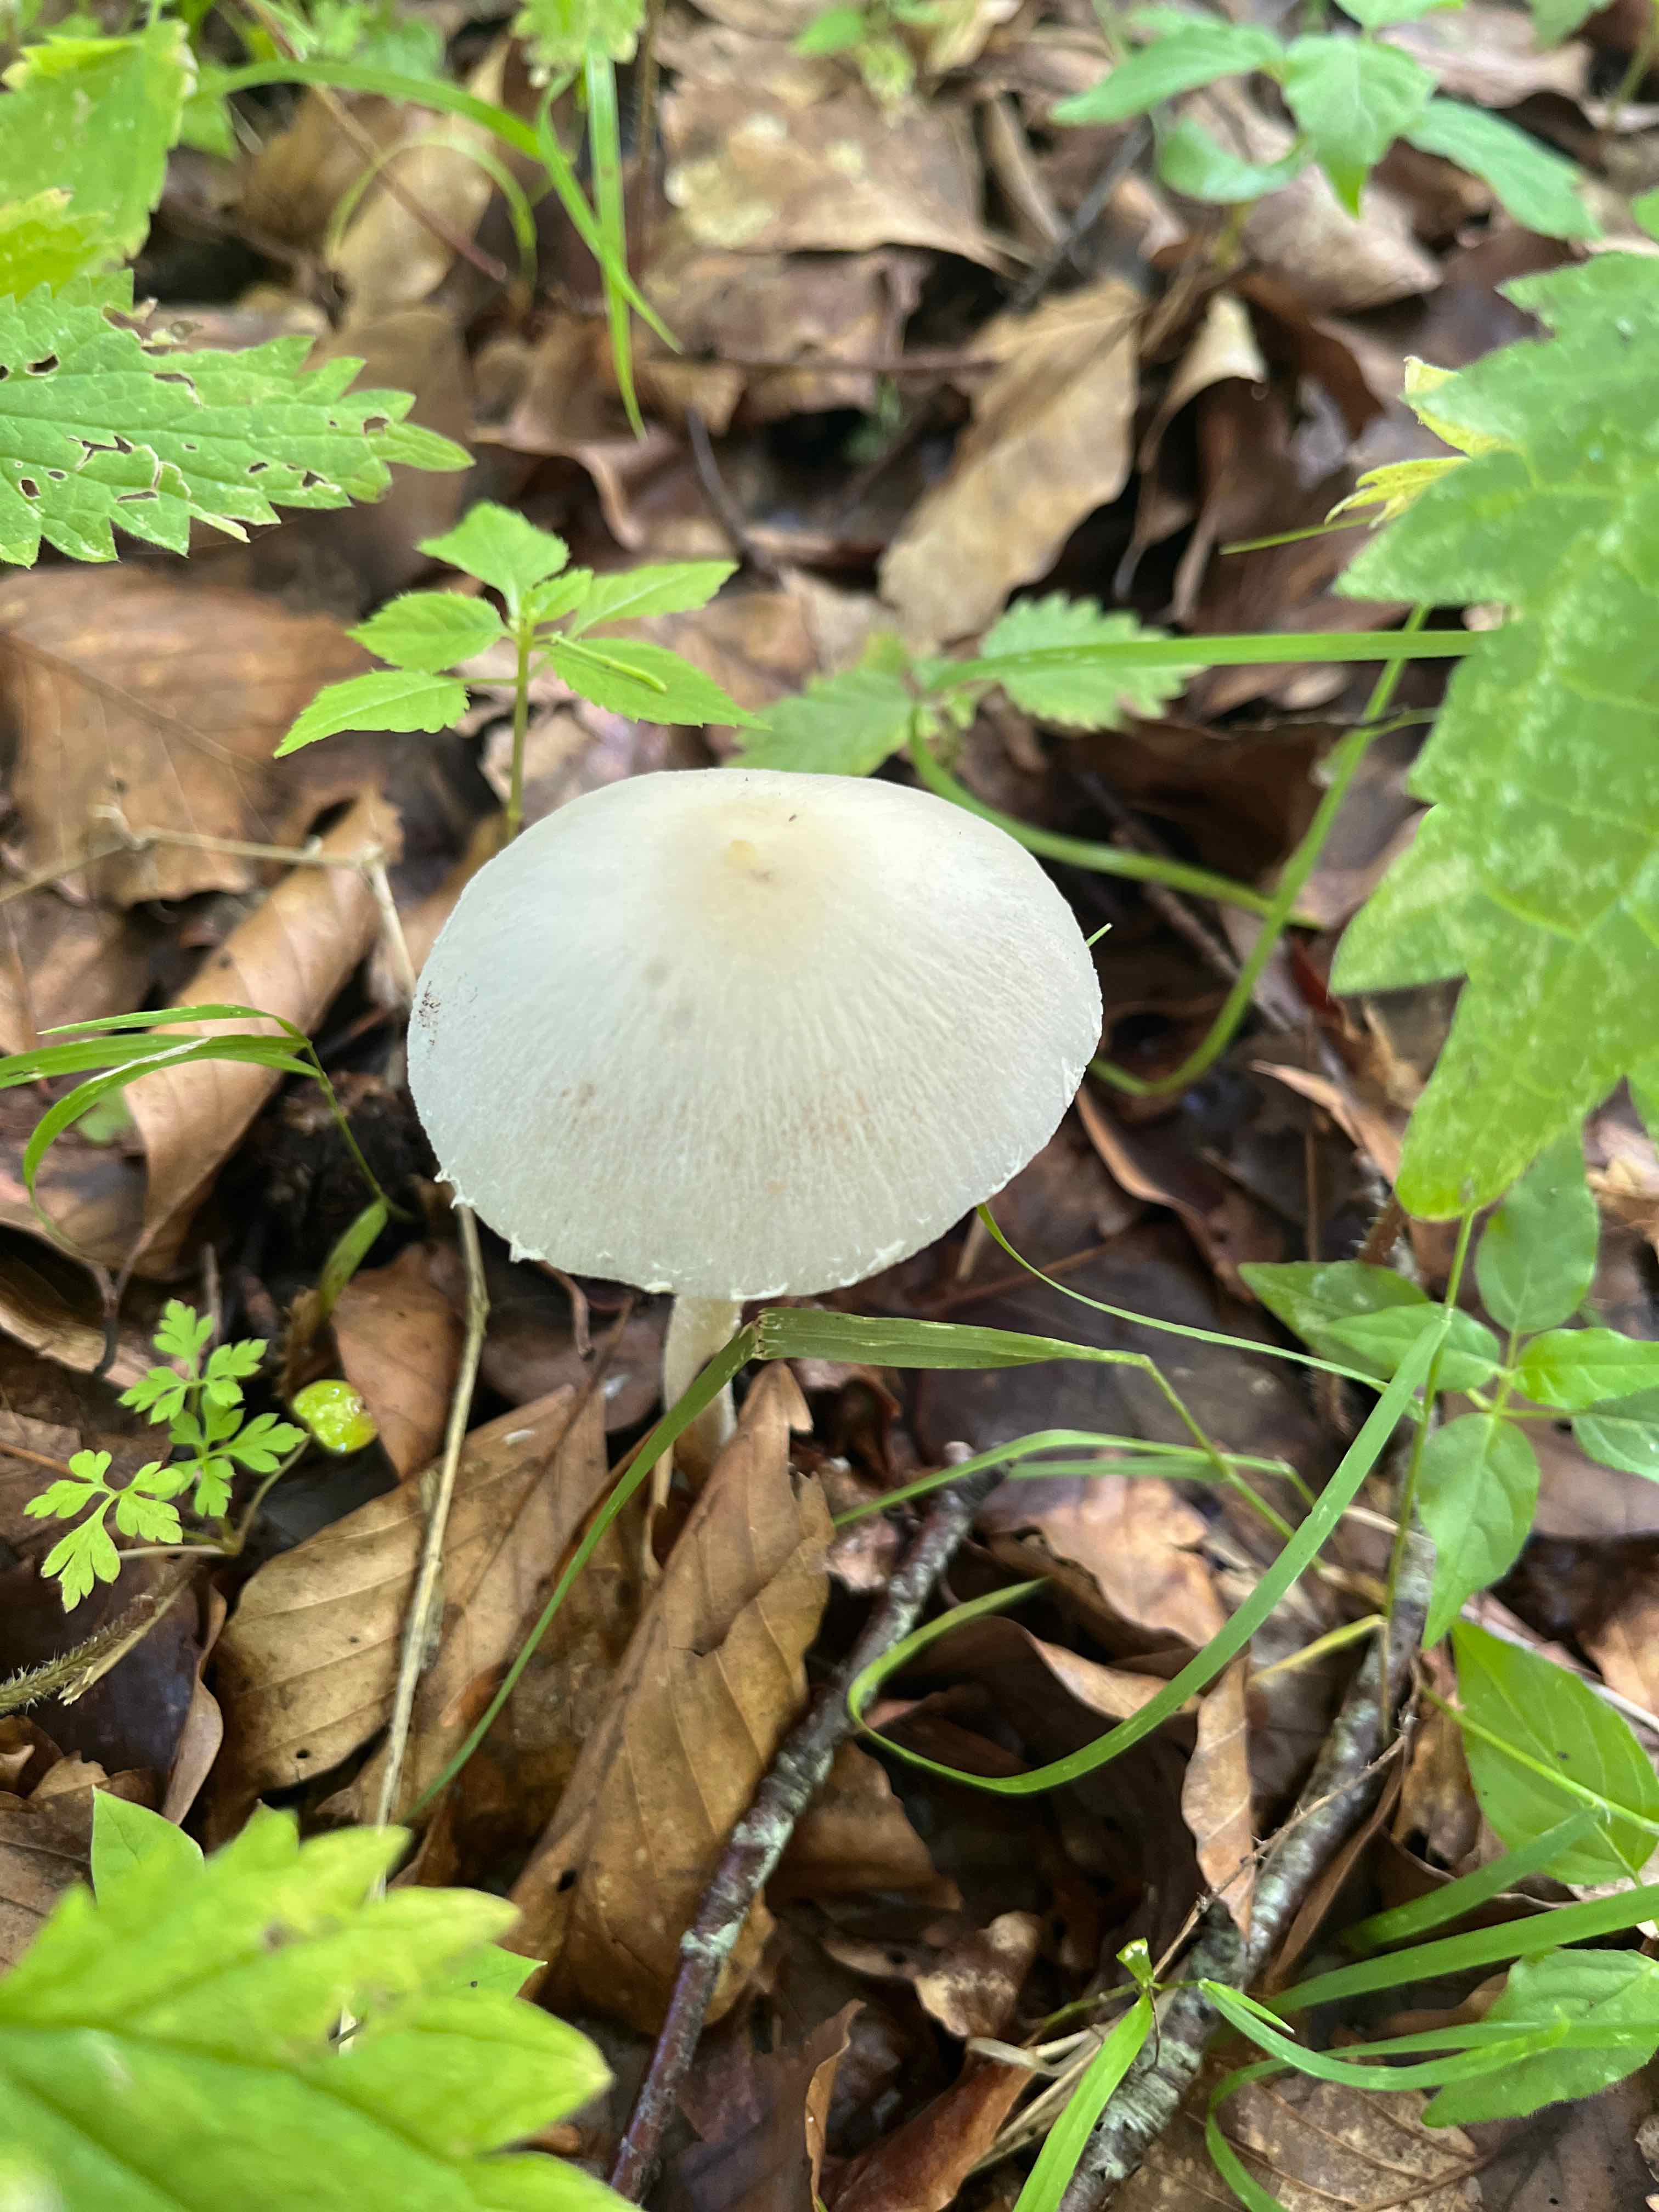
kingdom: Fungi
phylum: Basidiomycota
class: Agaricomycetes
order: Agaricales
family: Psathyrellaceae
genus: Candolleomyces
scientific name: Candolleomyces candolleanus
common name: Candolles mørkhat
